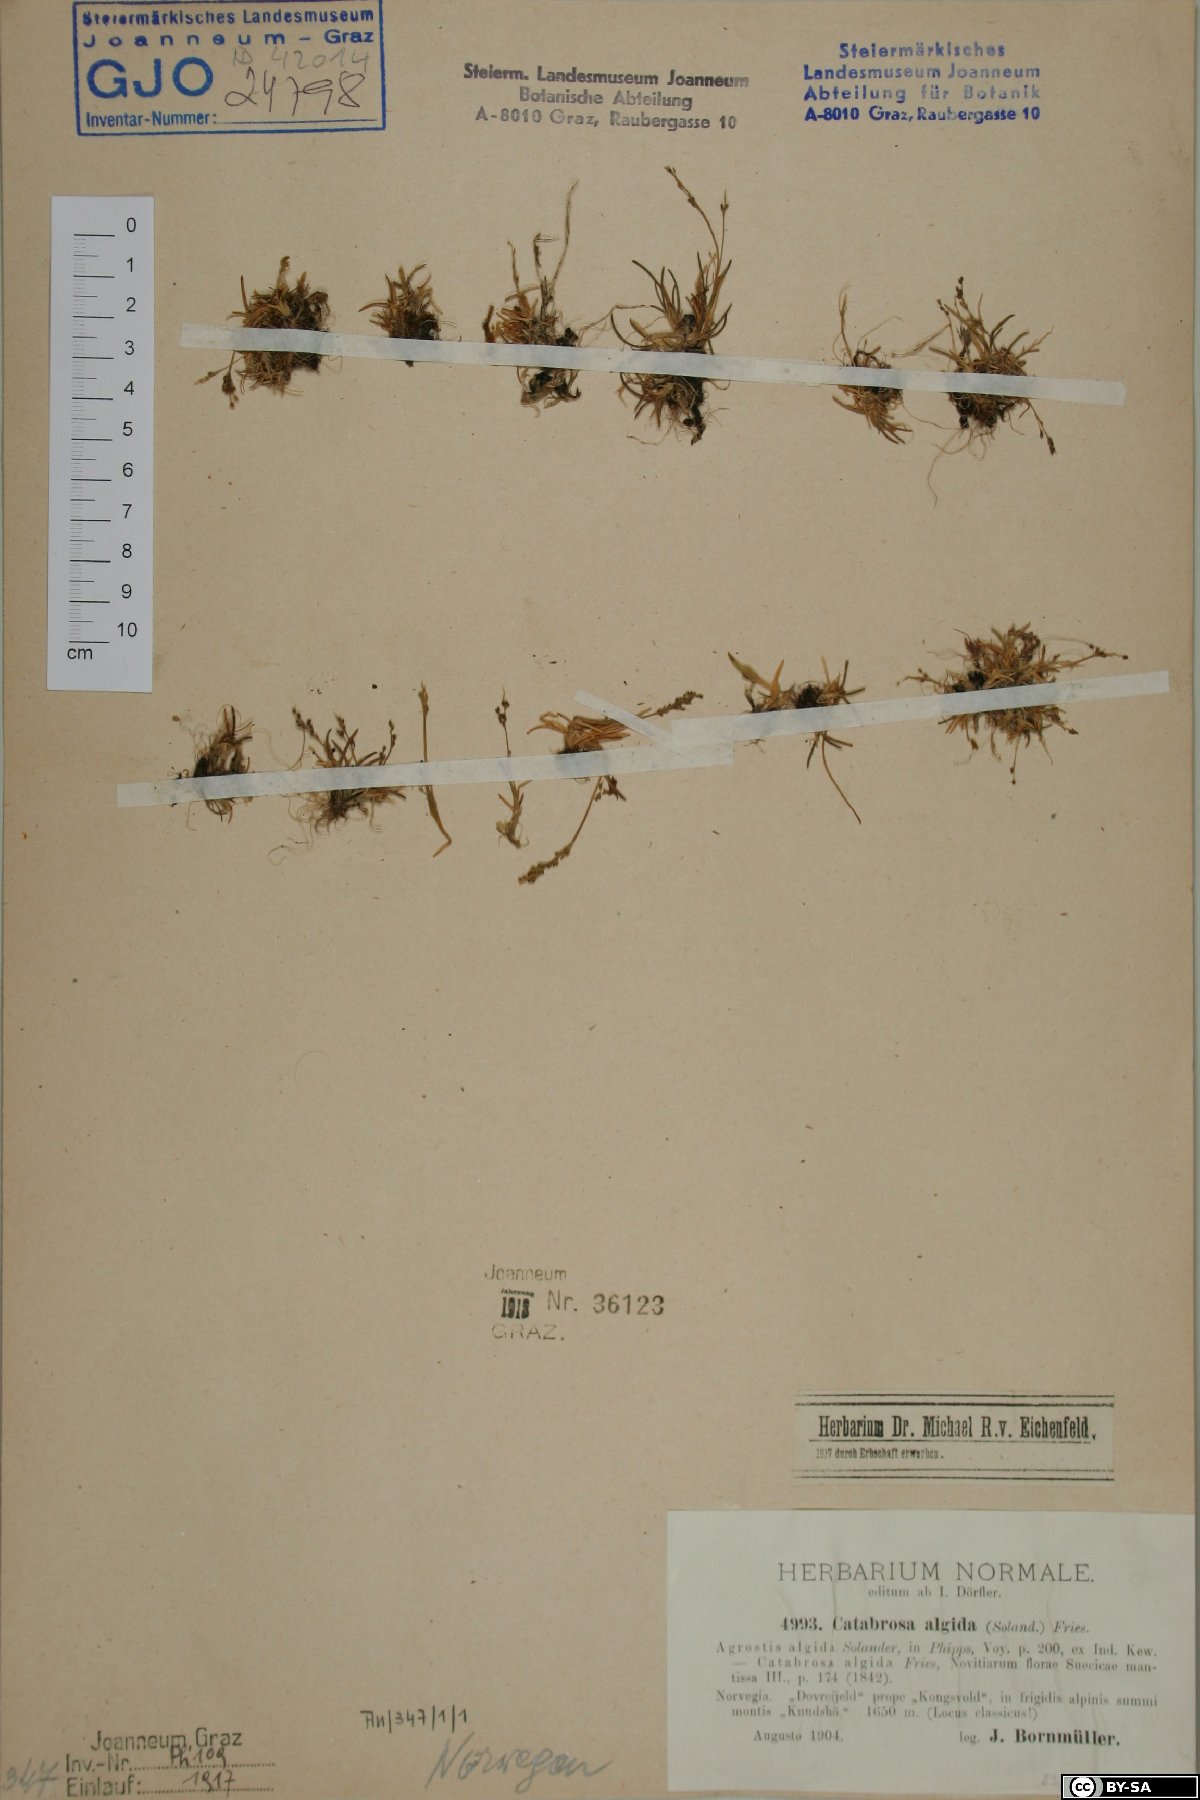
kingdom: Plantae
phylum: Tracheophyta
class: Liliopsida
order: Poales
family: Poaceae
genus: Phippsia
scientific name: Phippsia algida
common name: Ice grass
